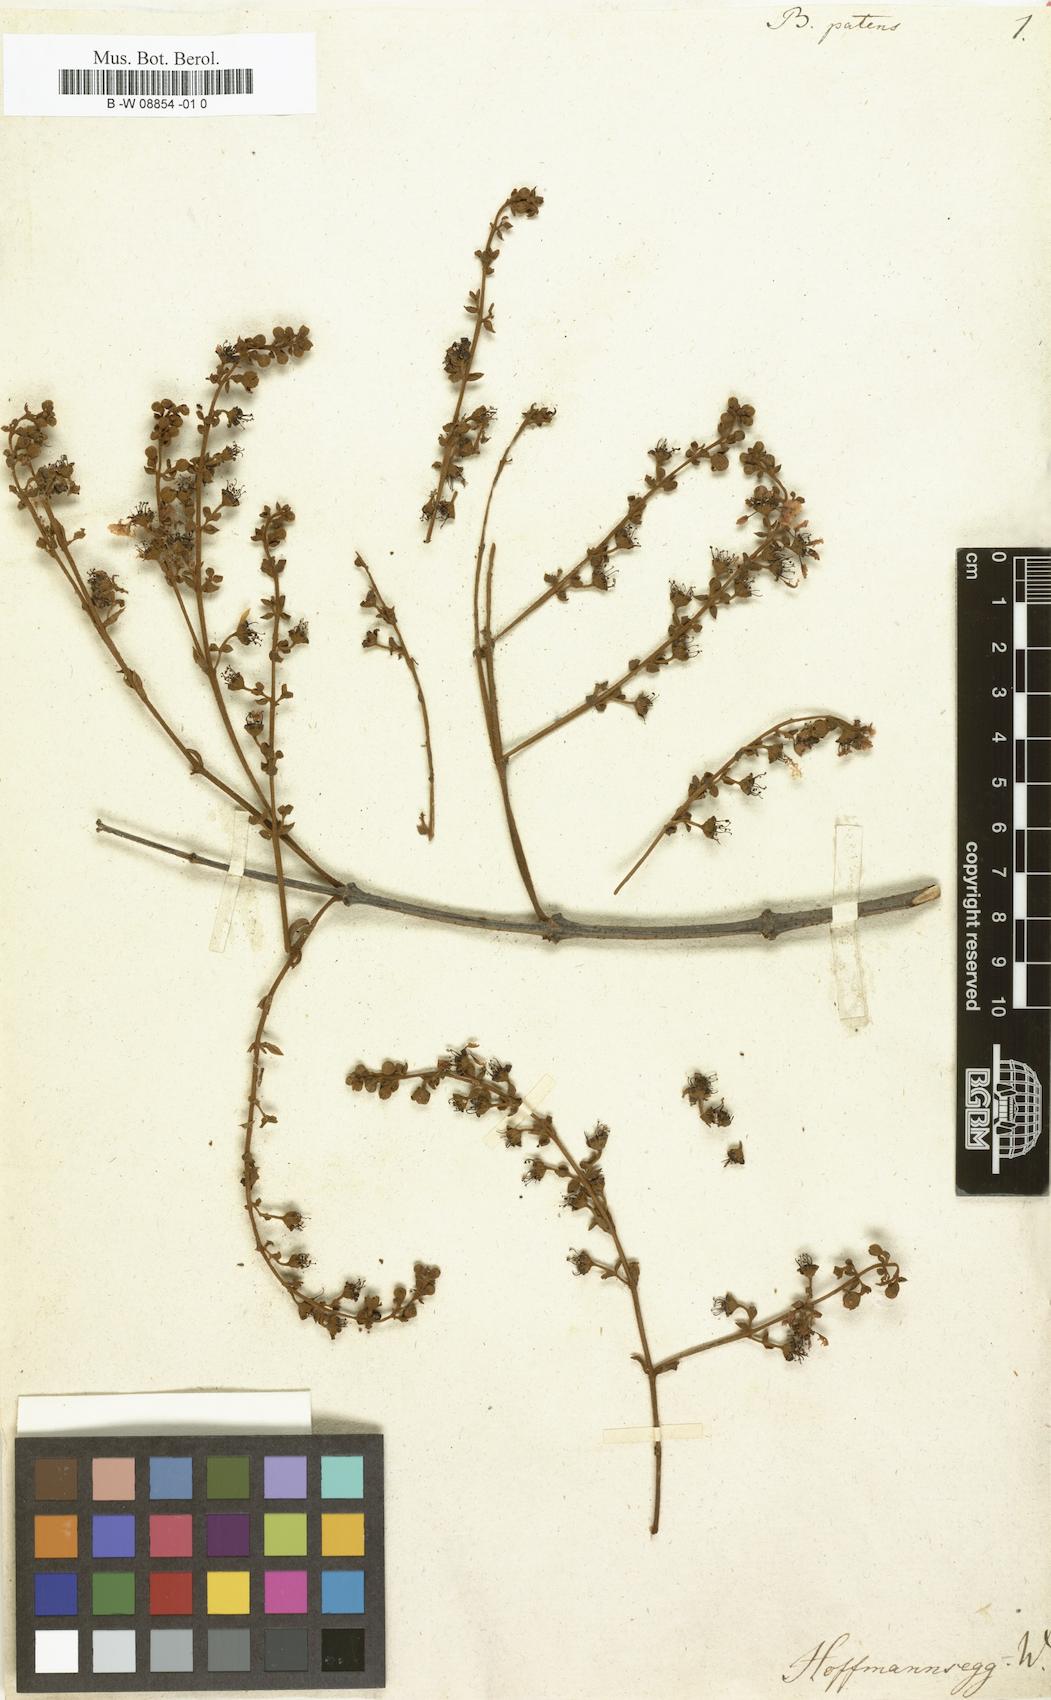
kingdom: Plantae
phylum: Tracheophyta
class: Magnoliopsida
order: Malpighiales
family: Malpighiaceae
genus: Heteropterys
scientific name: Heteropterys patens
